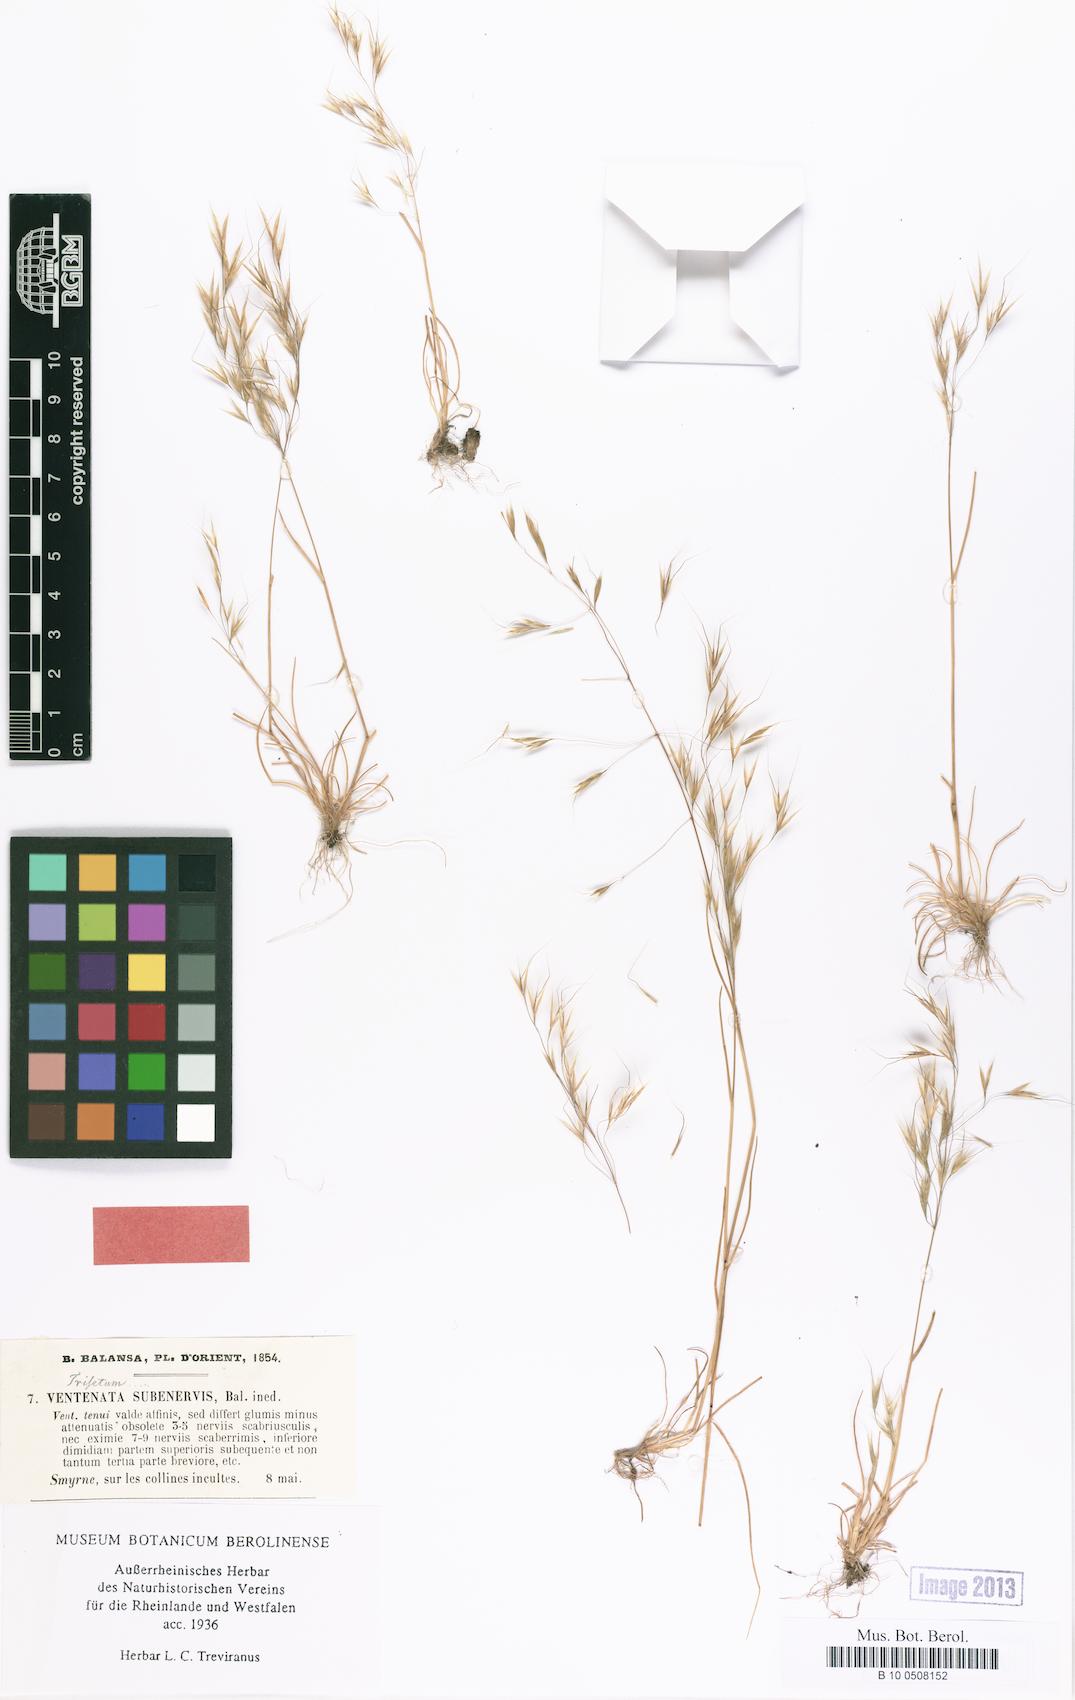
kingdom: Plantae
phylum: Tracheophyta
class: Liliopsida
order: Poales
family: Poaceae
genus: Ventenata
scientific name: Ventenata subenervis
